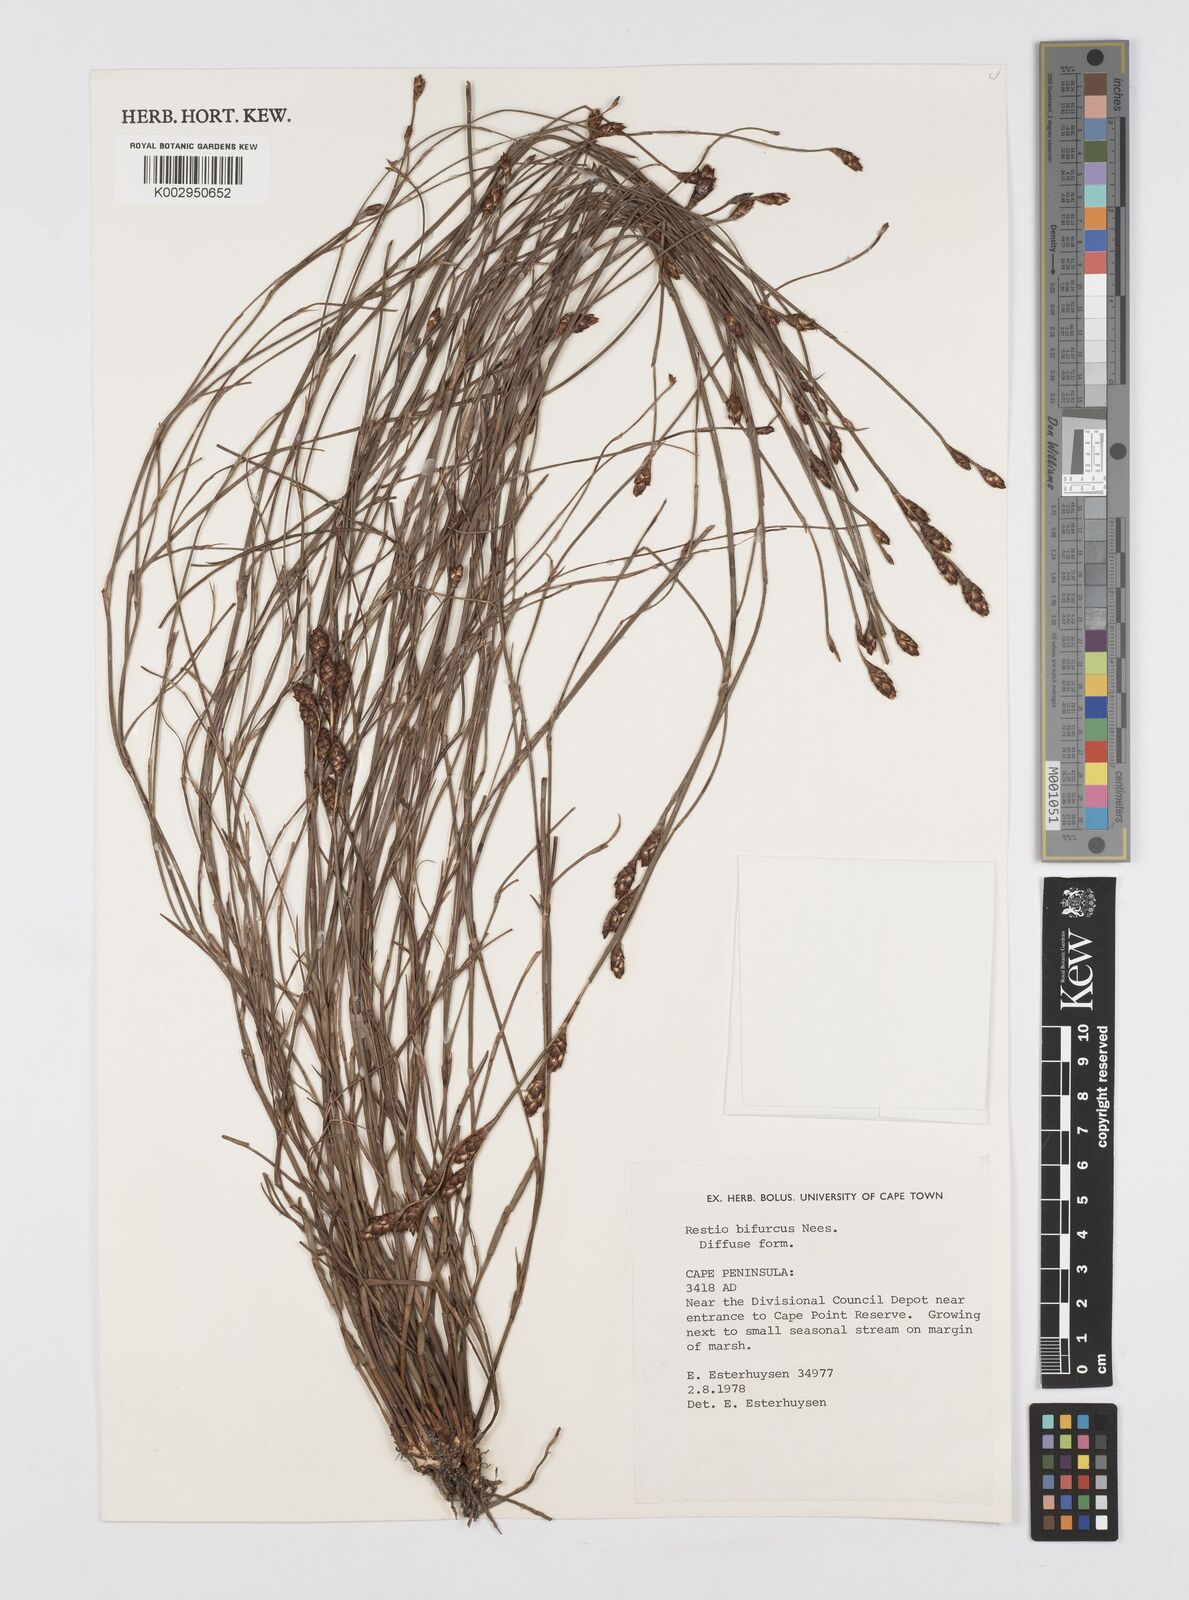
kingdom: Plantae
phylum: Tracheophyta
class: Liliopsida
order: Poales
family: Restionaceae
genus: Restio
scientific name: Restio bifurcus
